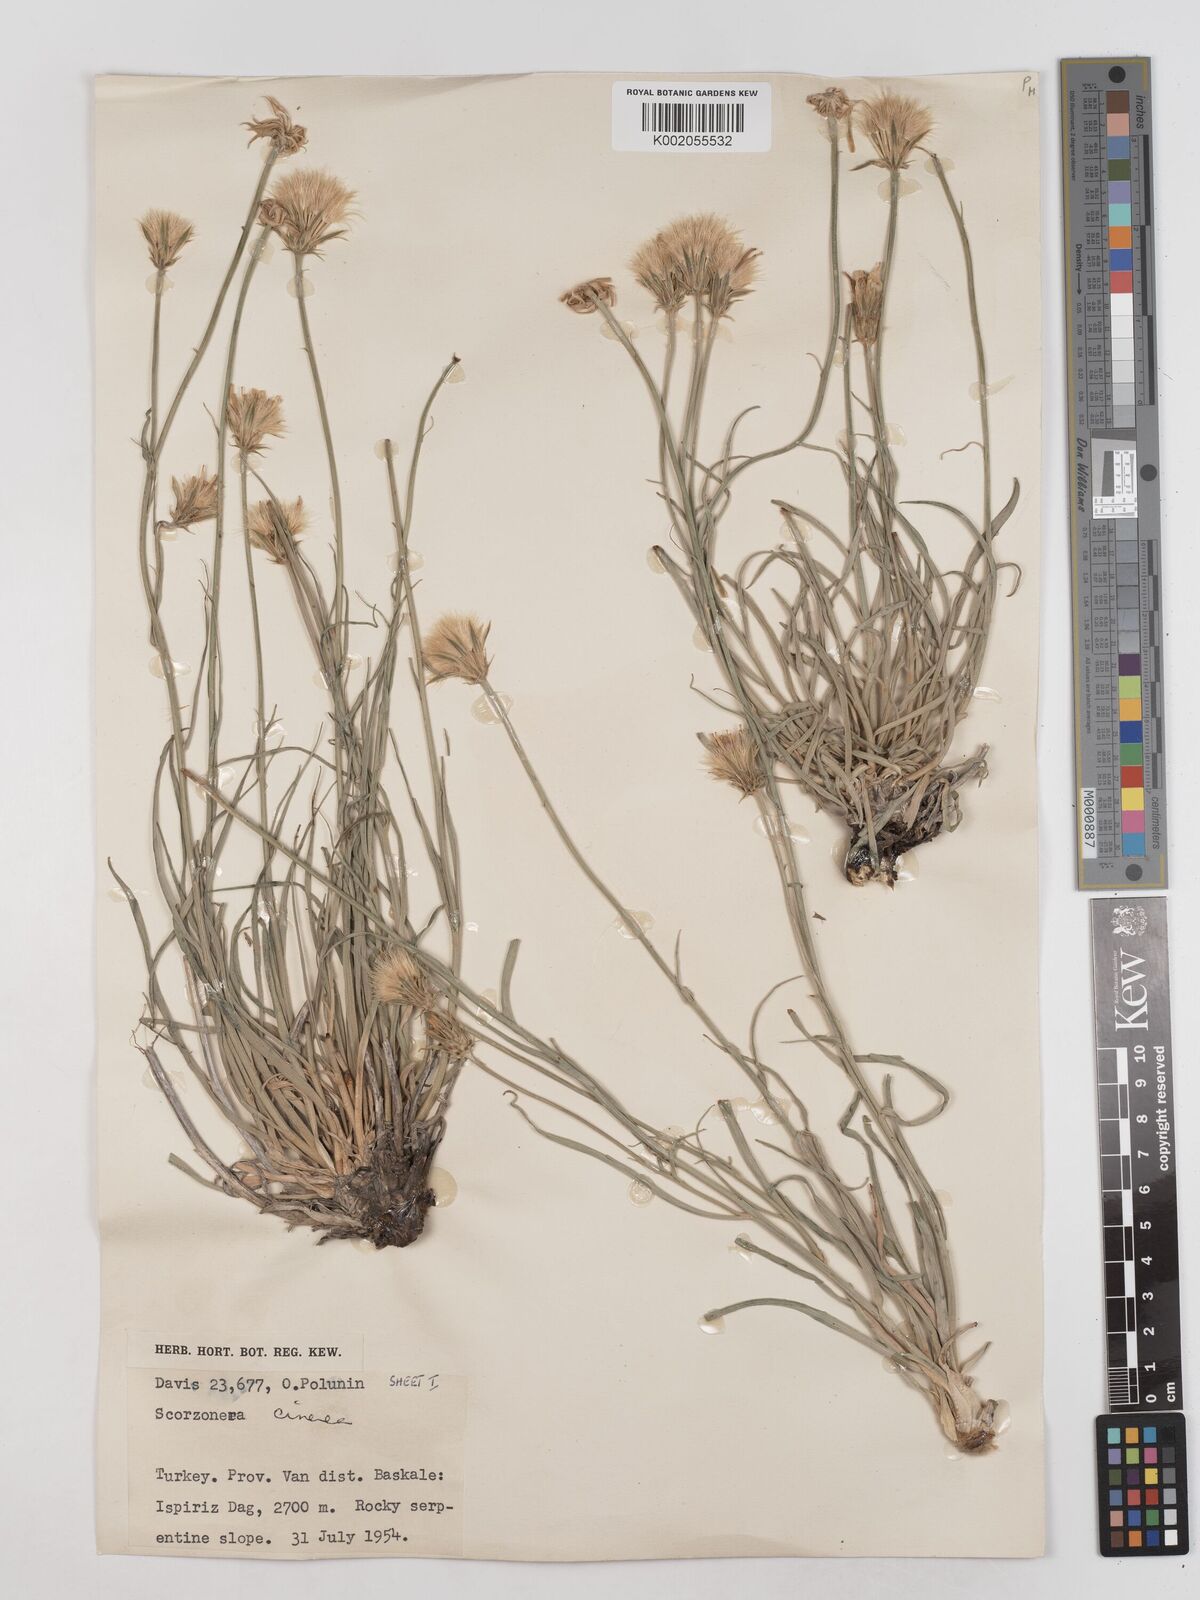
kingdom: Plantae
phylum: Tracheophyta
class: Magnoliopsida
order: Asterales
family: Asteraceae
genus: Cigdemia
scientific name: Cigdemia cinerea
